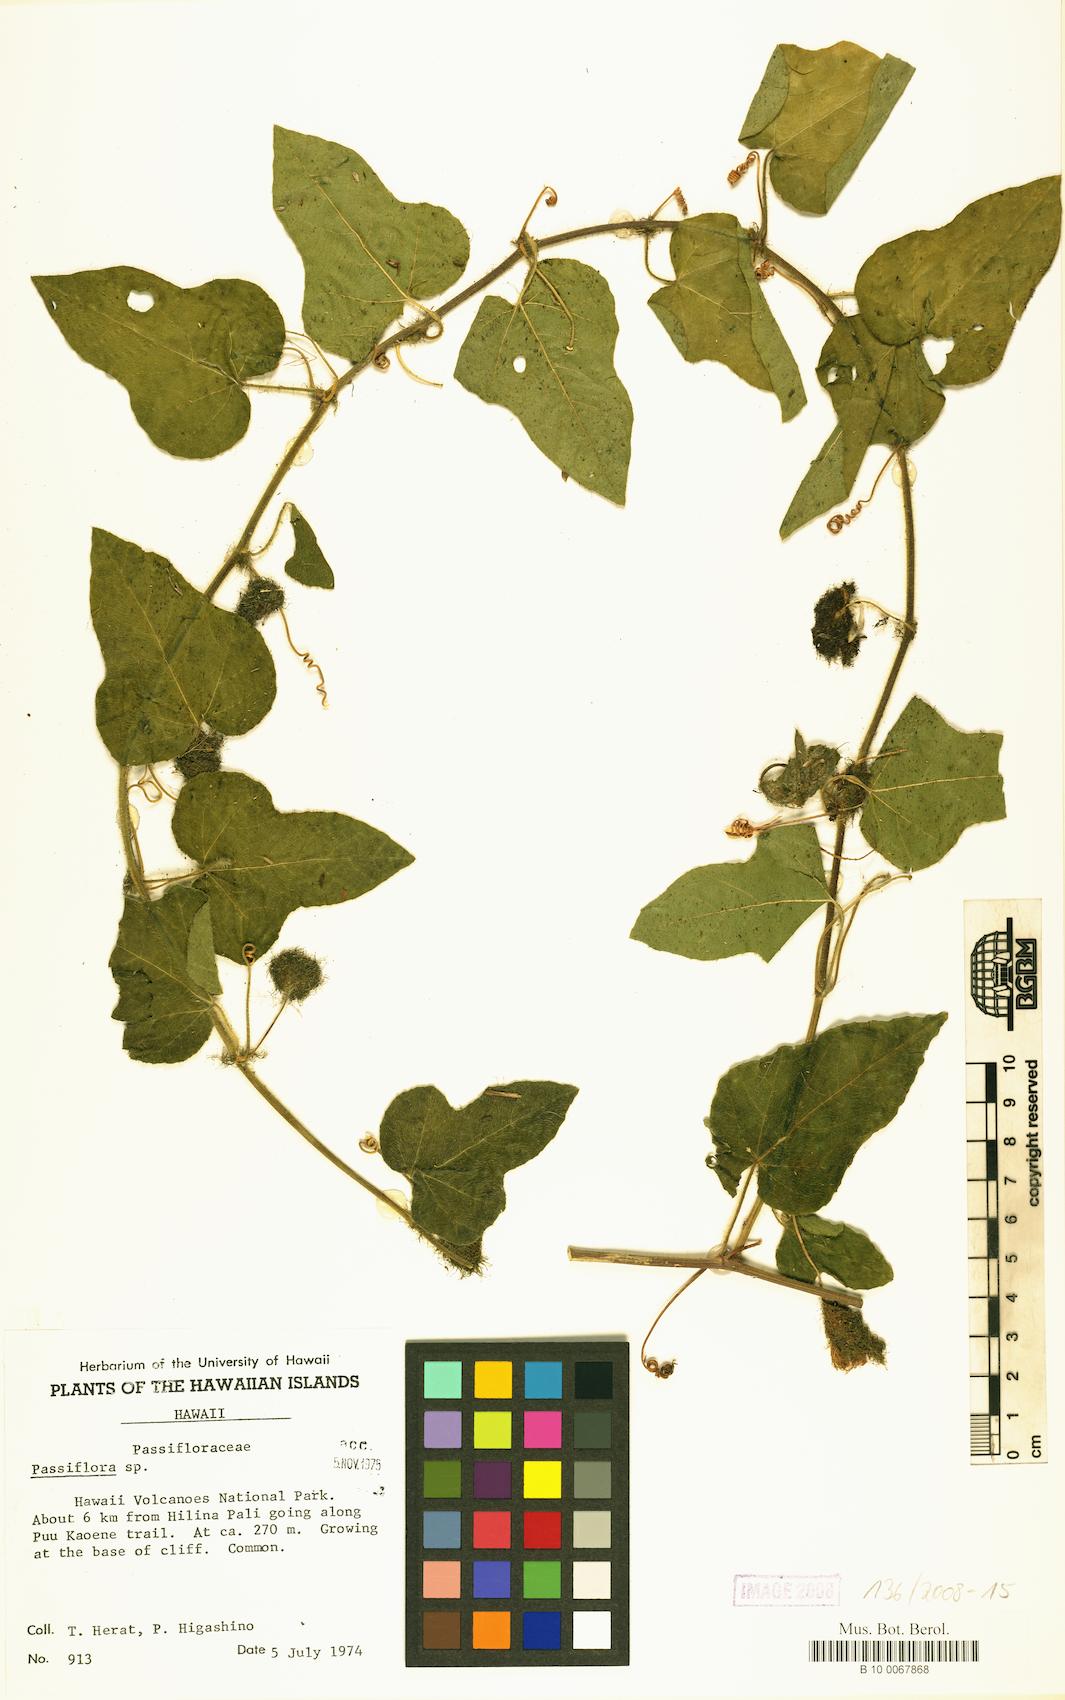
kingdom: Plantae
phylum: Tracheophyta
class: Magnoliopsida
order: Malpighiales
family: Passifloraceae
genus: Passiflora
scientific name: Passiflora foetida
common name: Fetid passionflower
